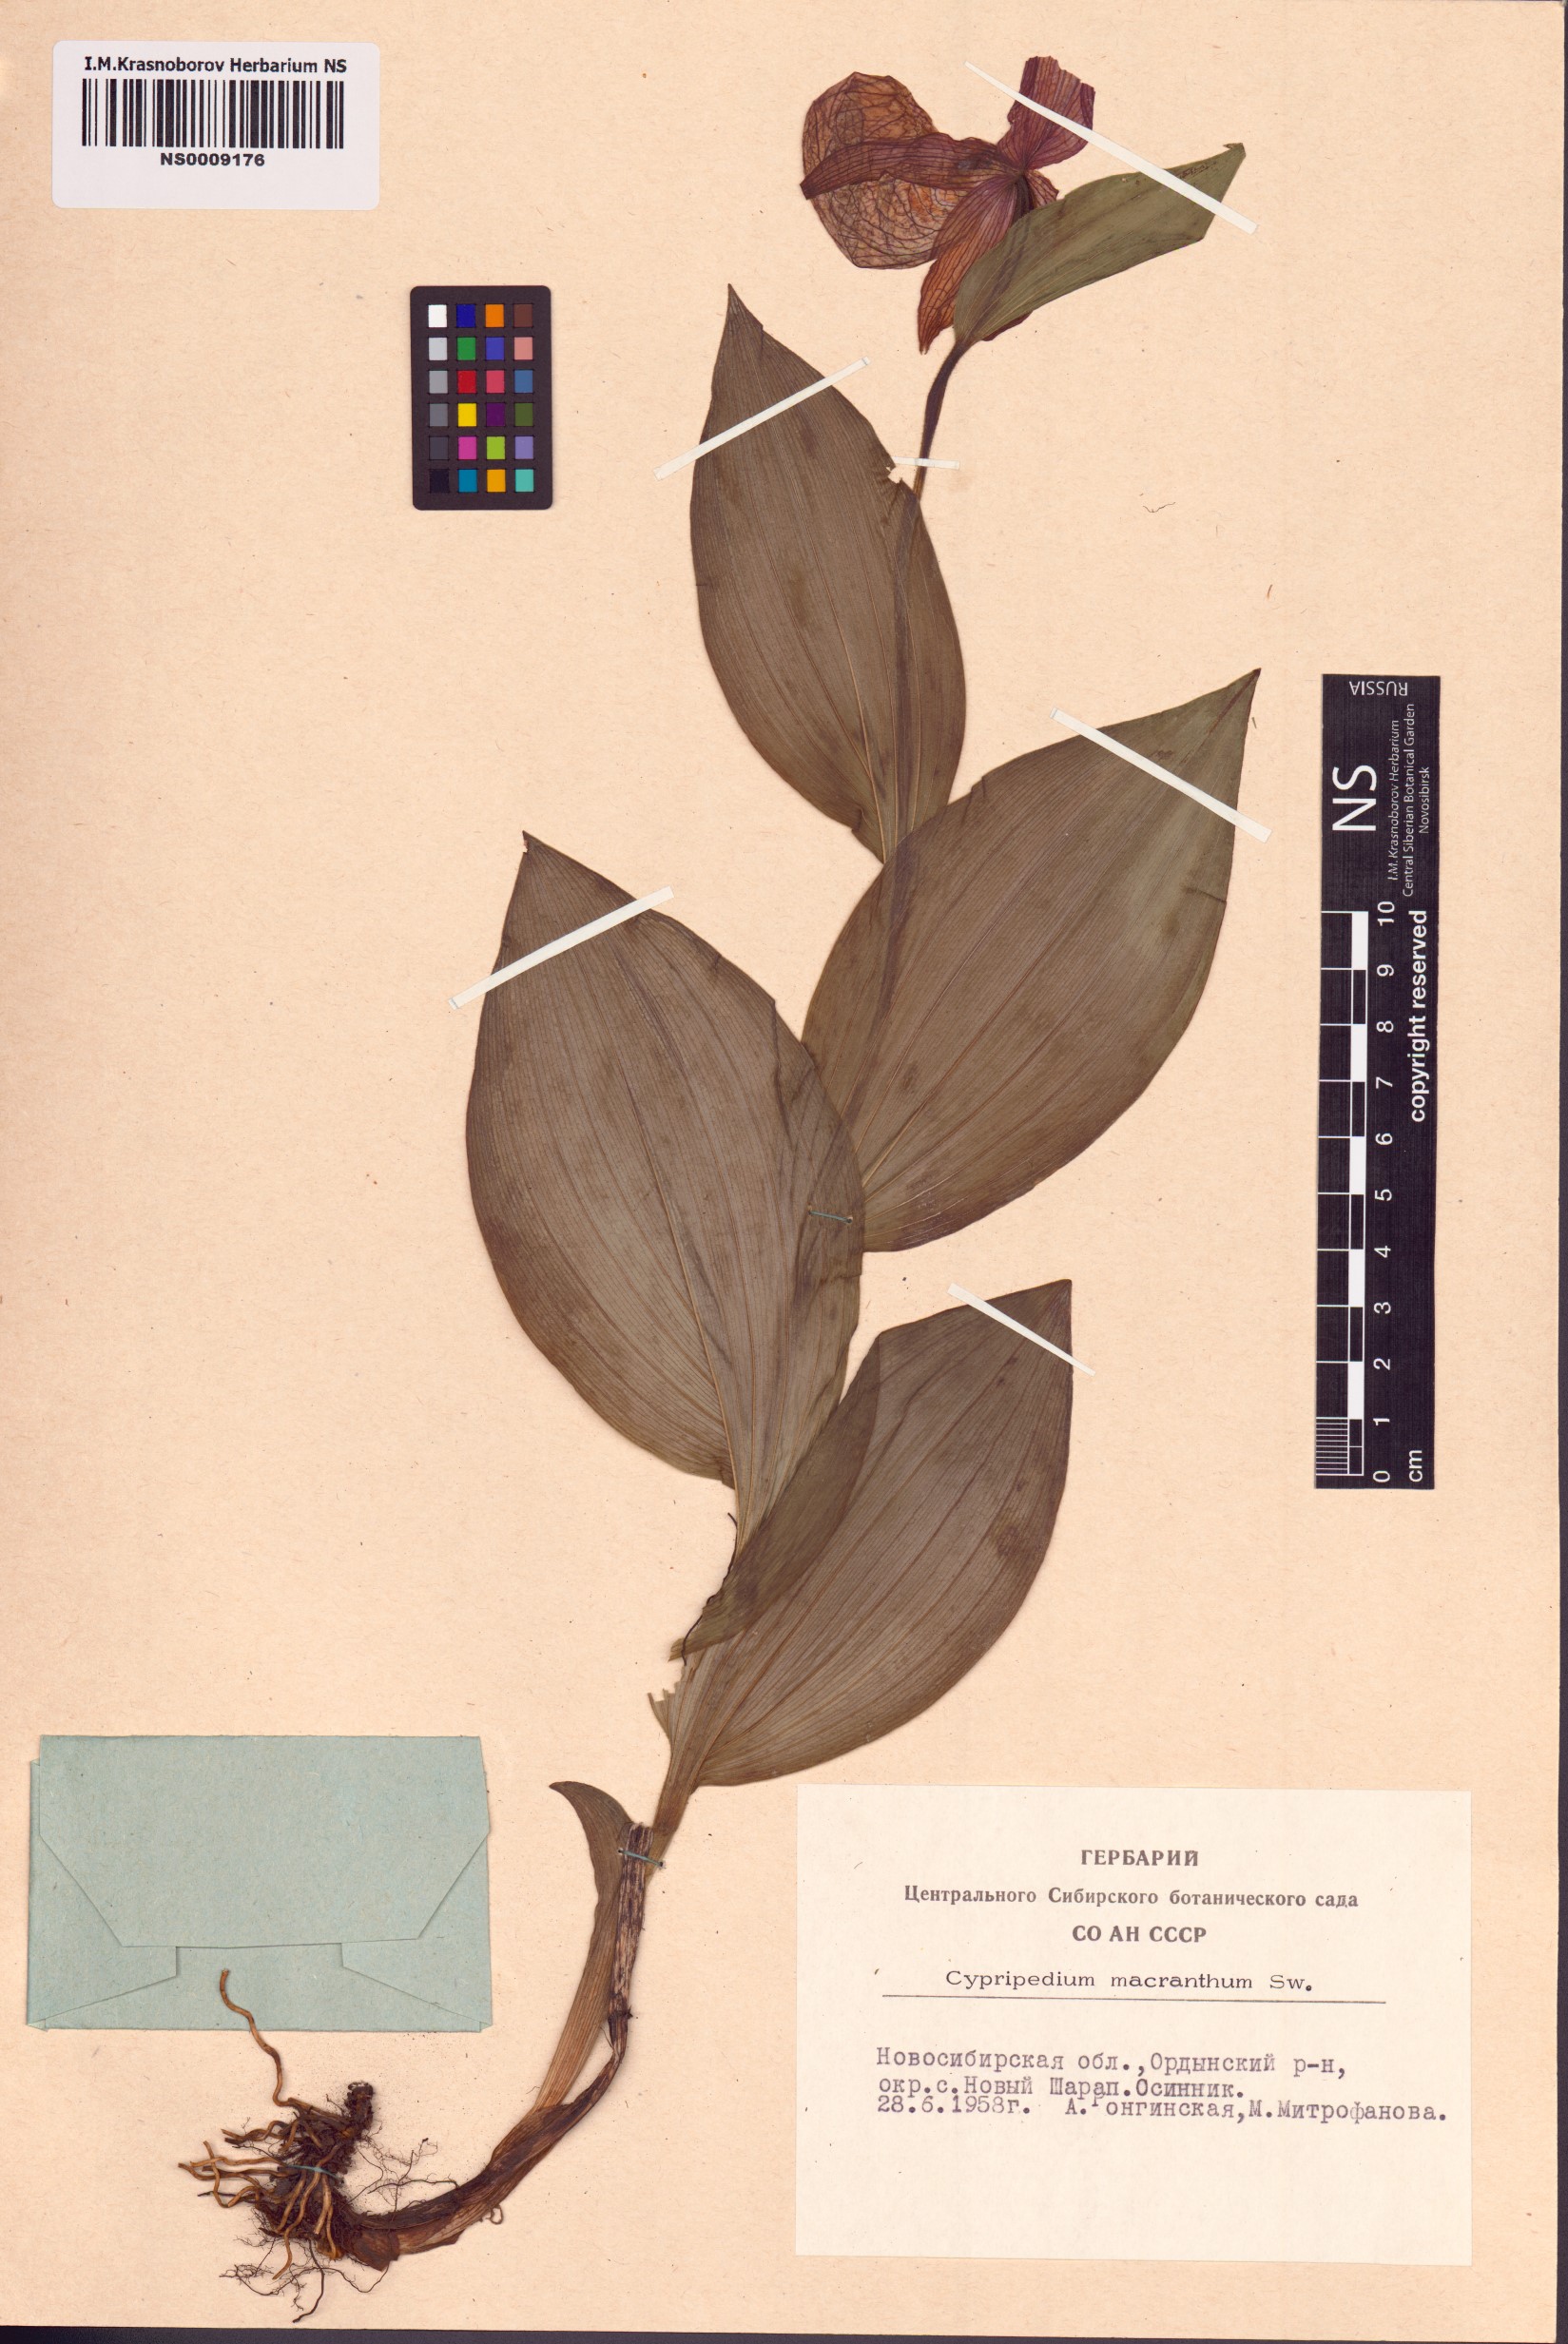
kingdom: Plantae
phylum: Tracheophyta
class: Liliopsida
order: Asparagales
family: Orchidaceae
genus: Cypripedium
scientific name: Cypripedium macranthos
